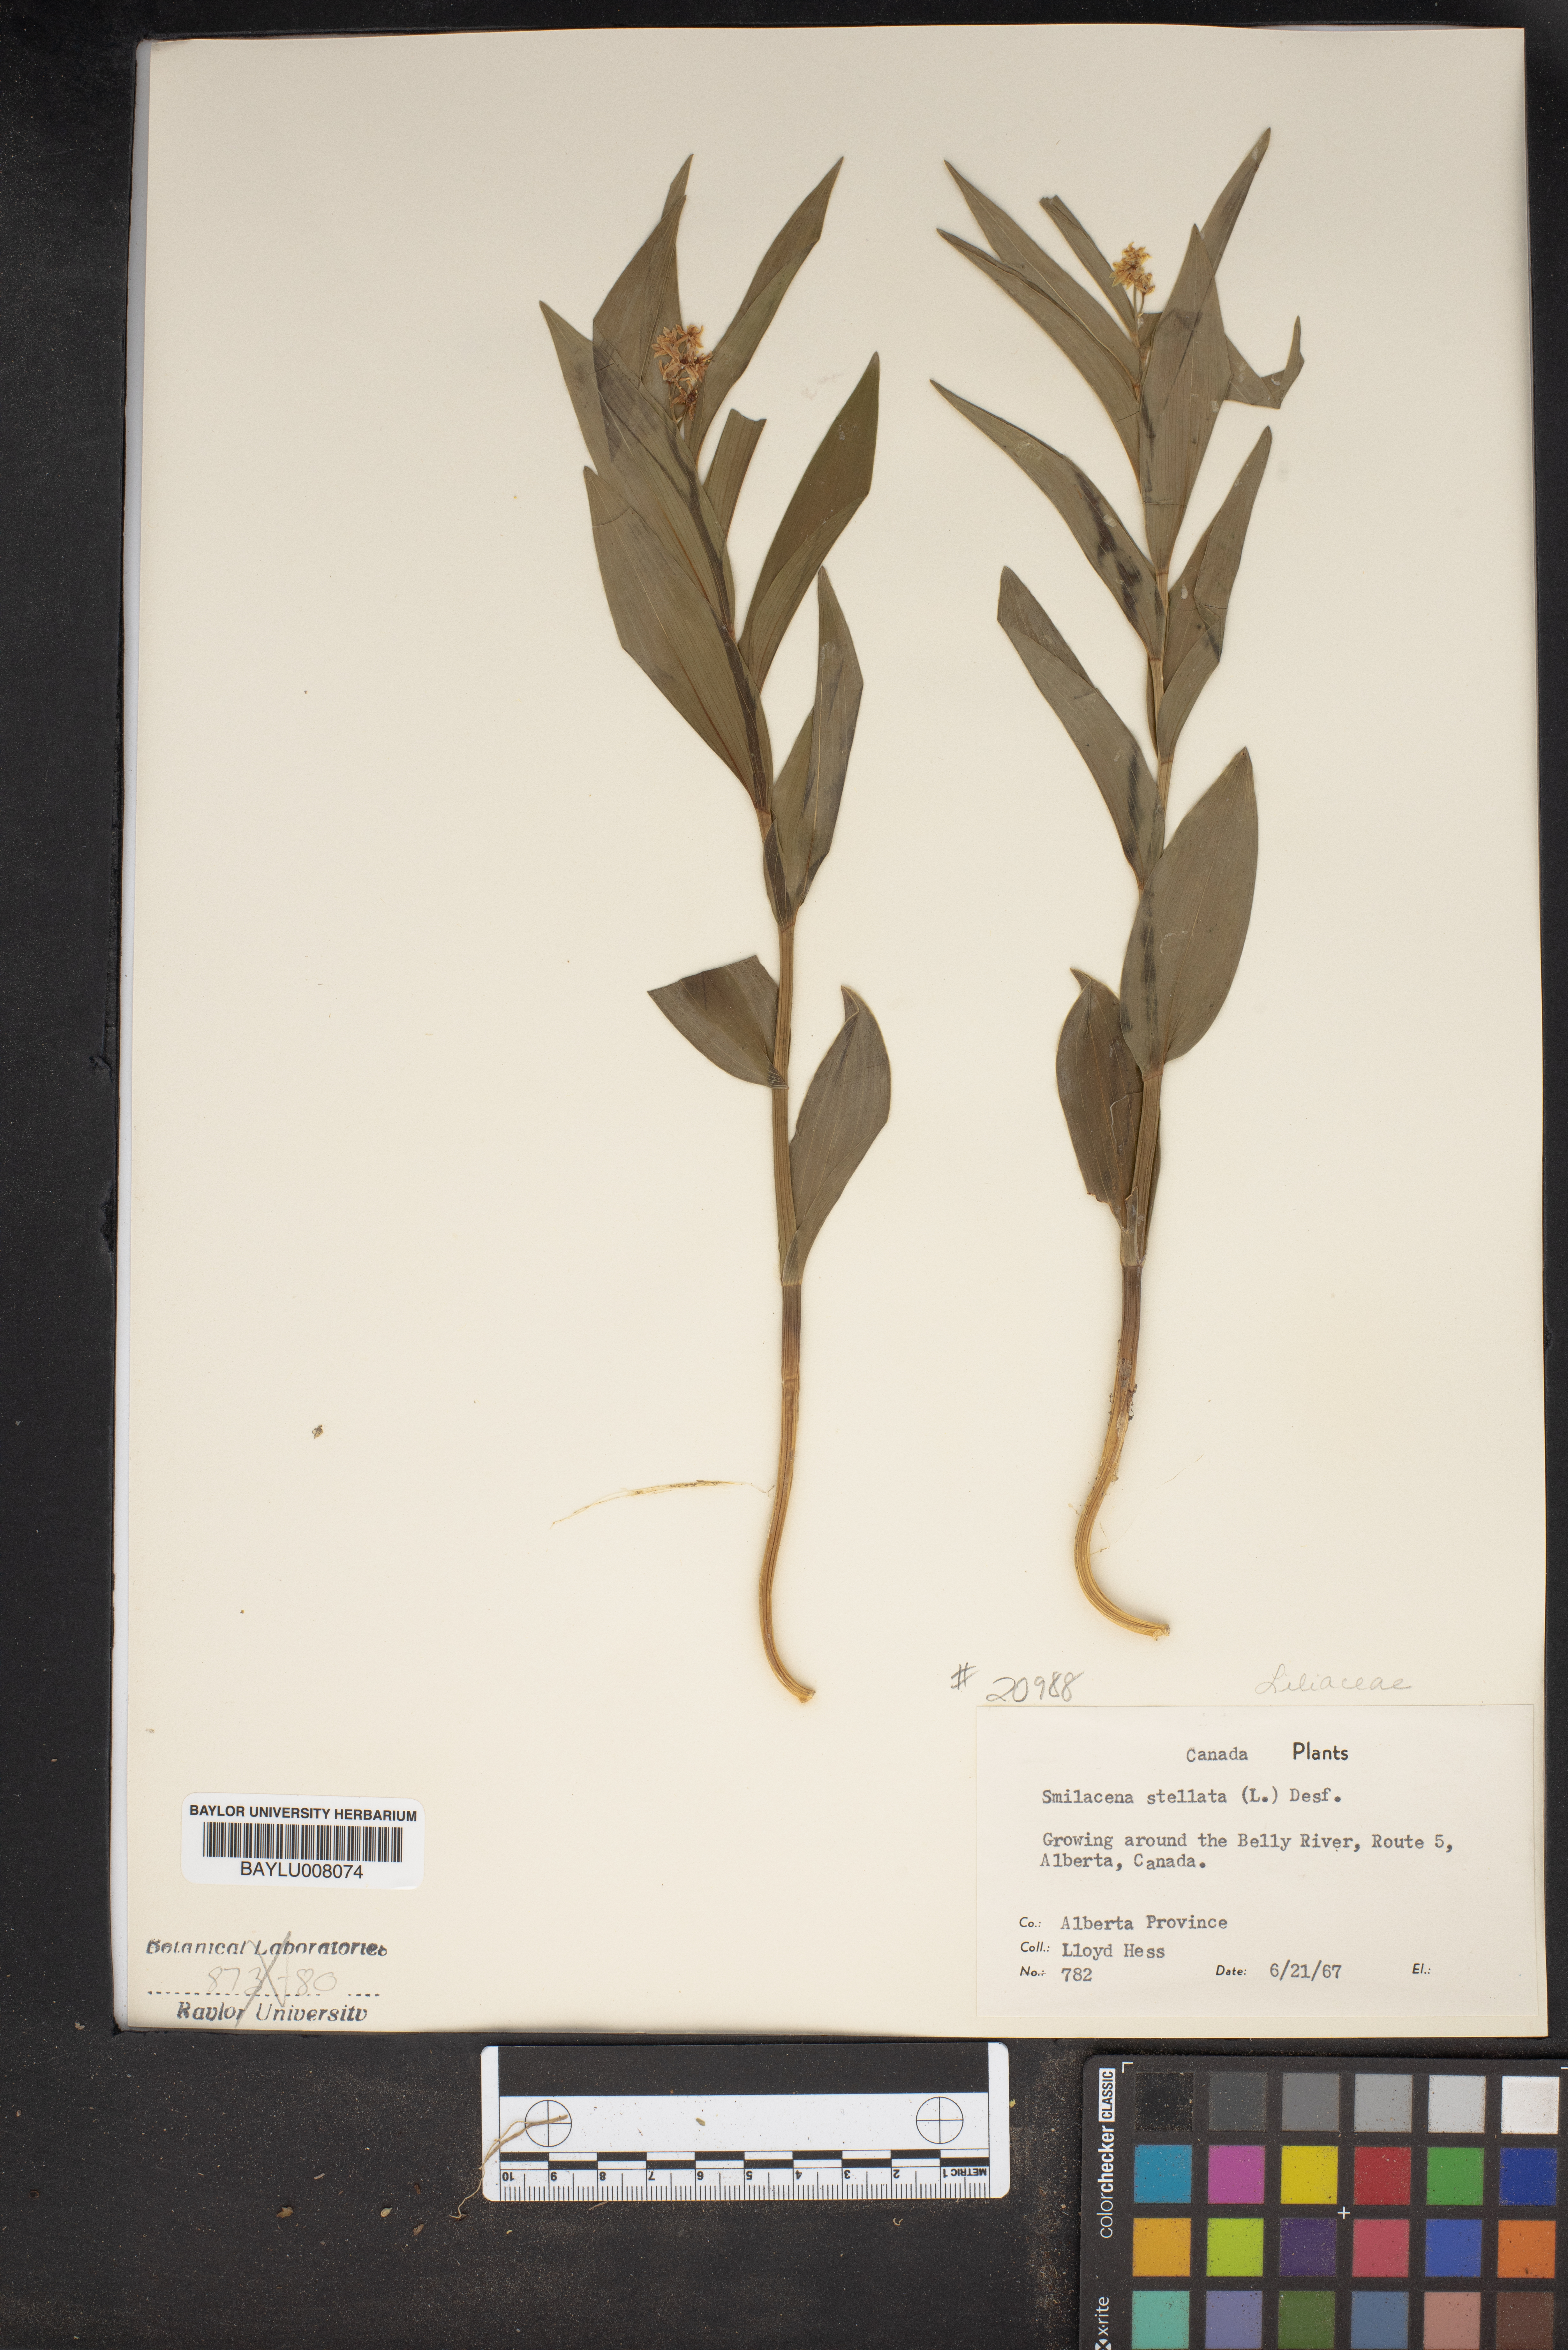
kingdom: Plantae
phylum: Tracheophyta
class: Liliopsida
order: Asparagales
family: Asparagaceae
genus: Maianthemum
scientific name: Maianthemum stellatum
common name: Little false solomon's seal
